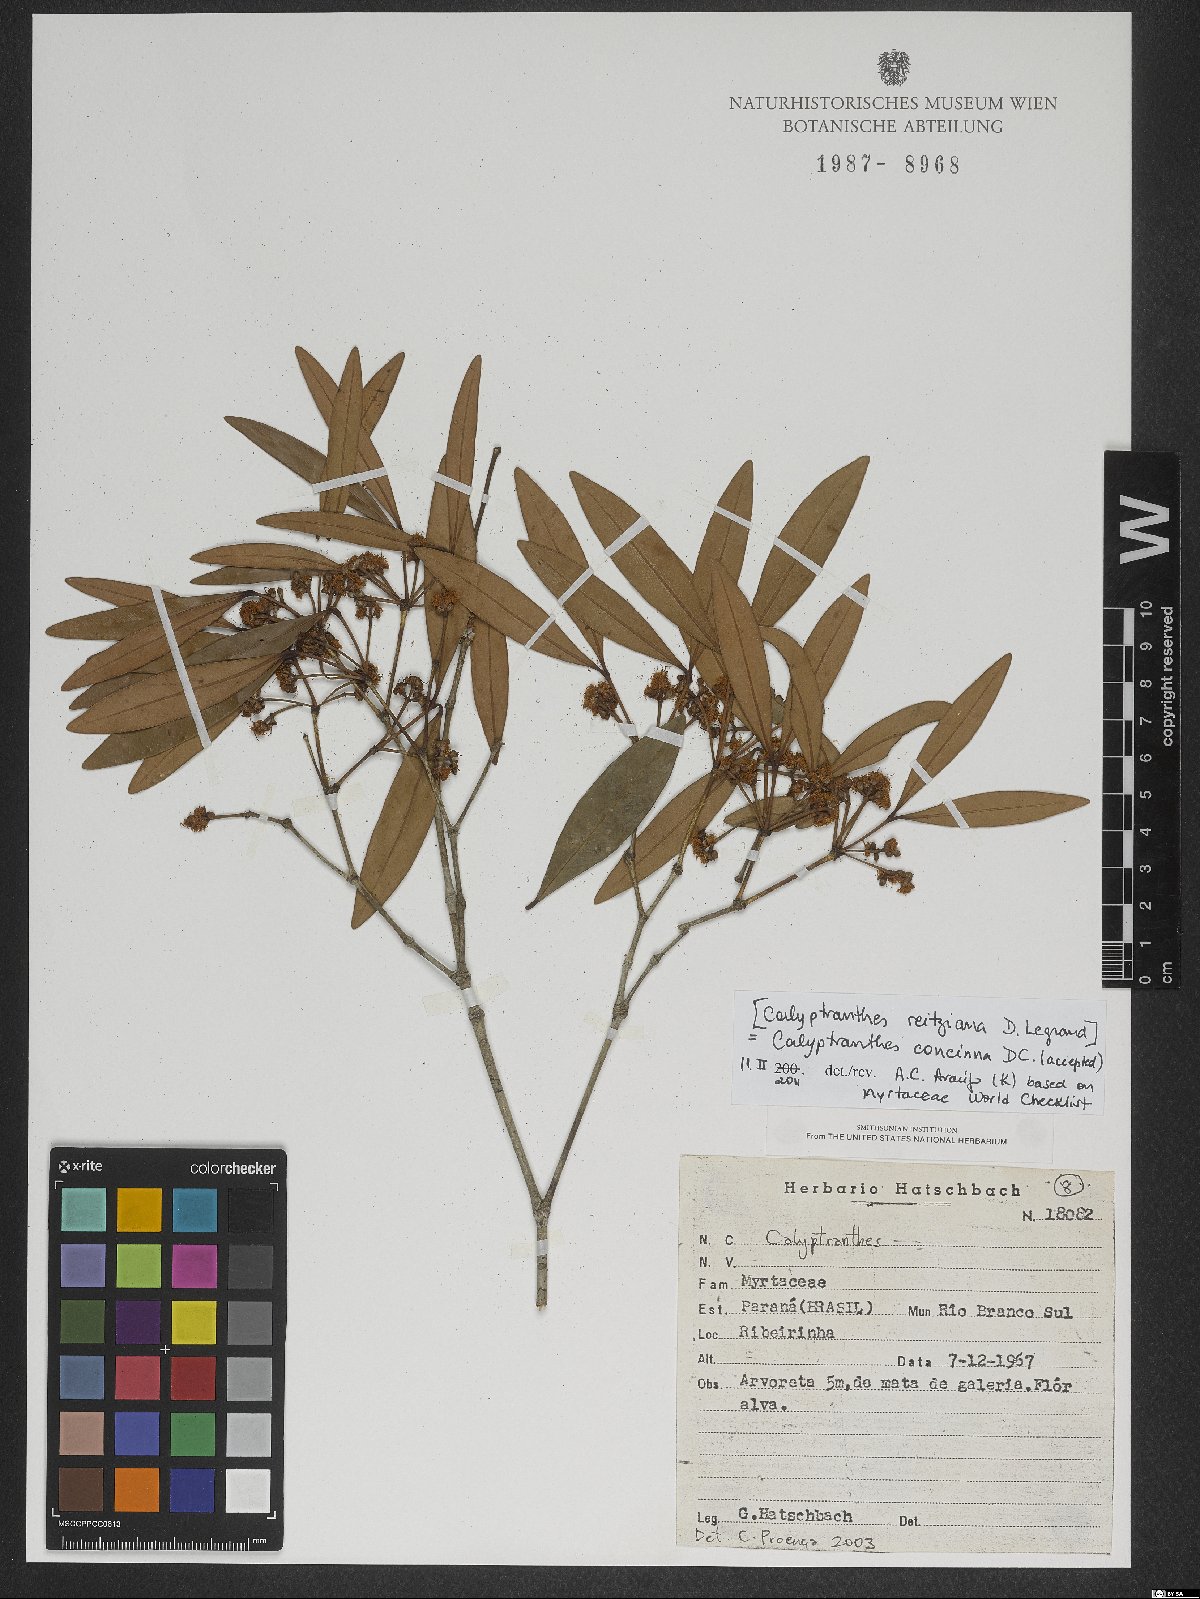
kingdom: Plantae
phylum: Tracheophyta
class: Magnoliopsida
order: Myrtales
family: Myrtaceae
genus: Myrcia
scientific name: Myrcia cruciflora
